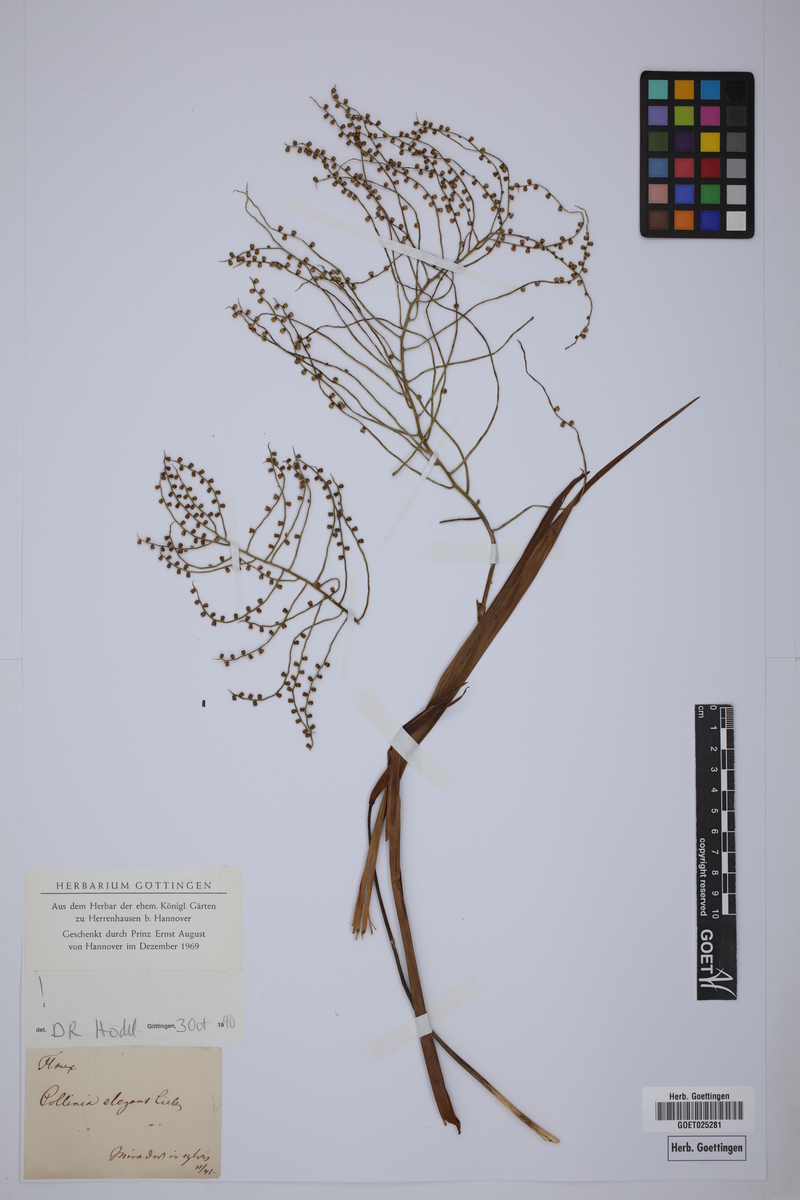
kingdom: Plantae
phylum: Tracheophyta
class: Liliopsida
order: Arecales
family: Arecaceae
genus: Chamaedorea
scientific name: Chamaedorea elegans
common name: Good-luck palm
